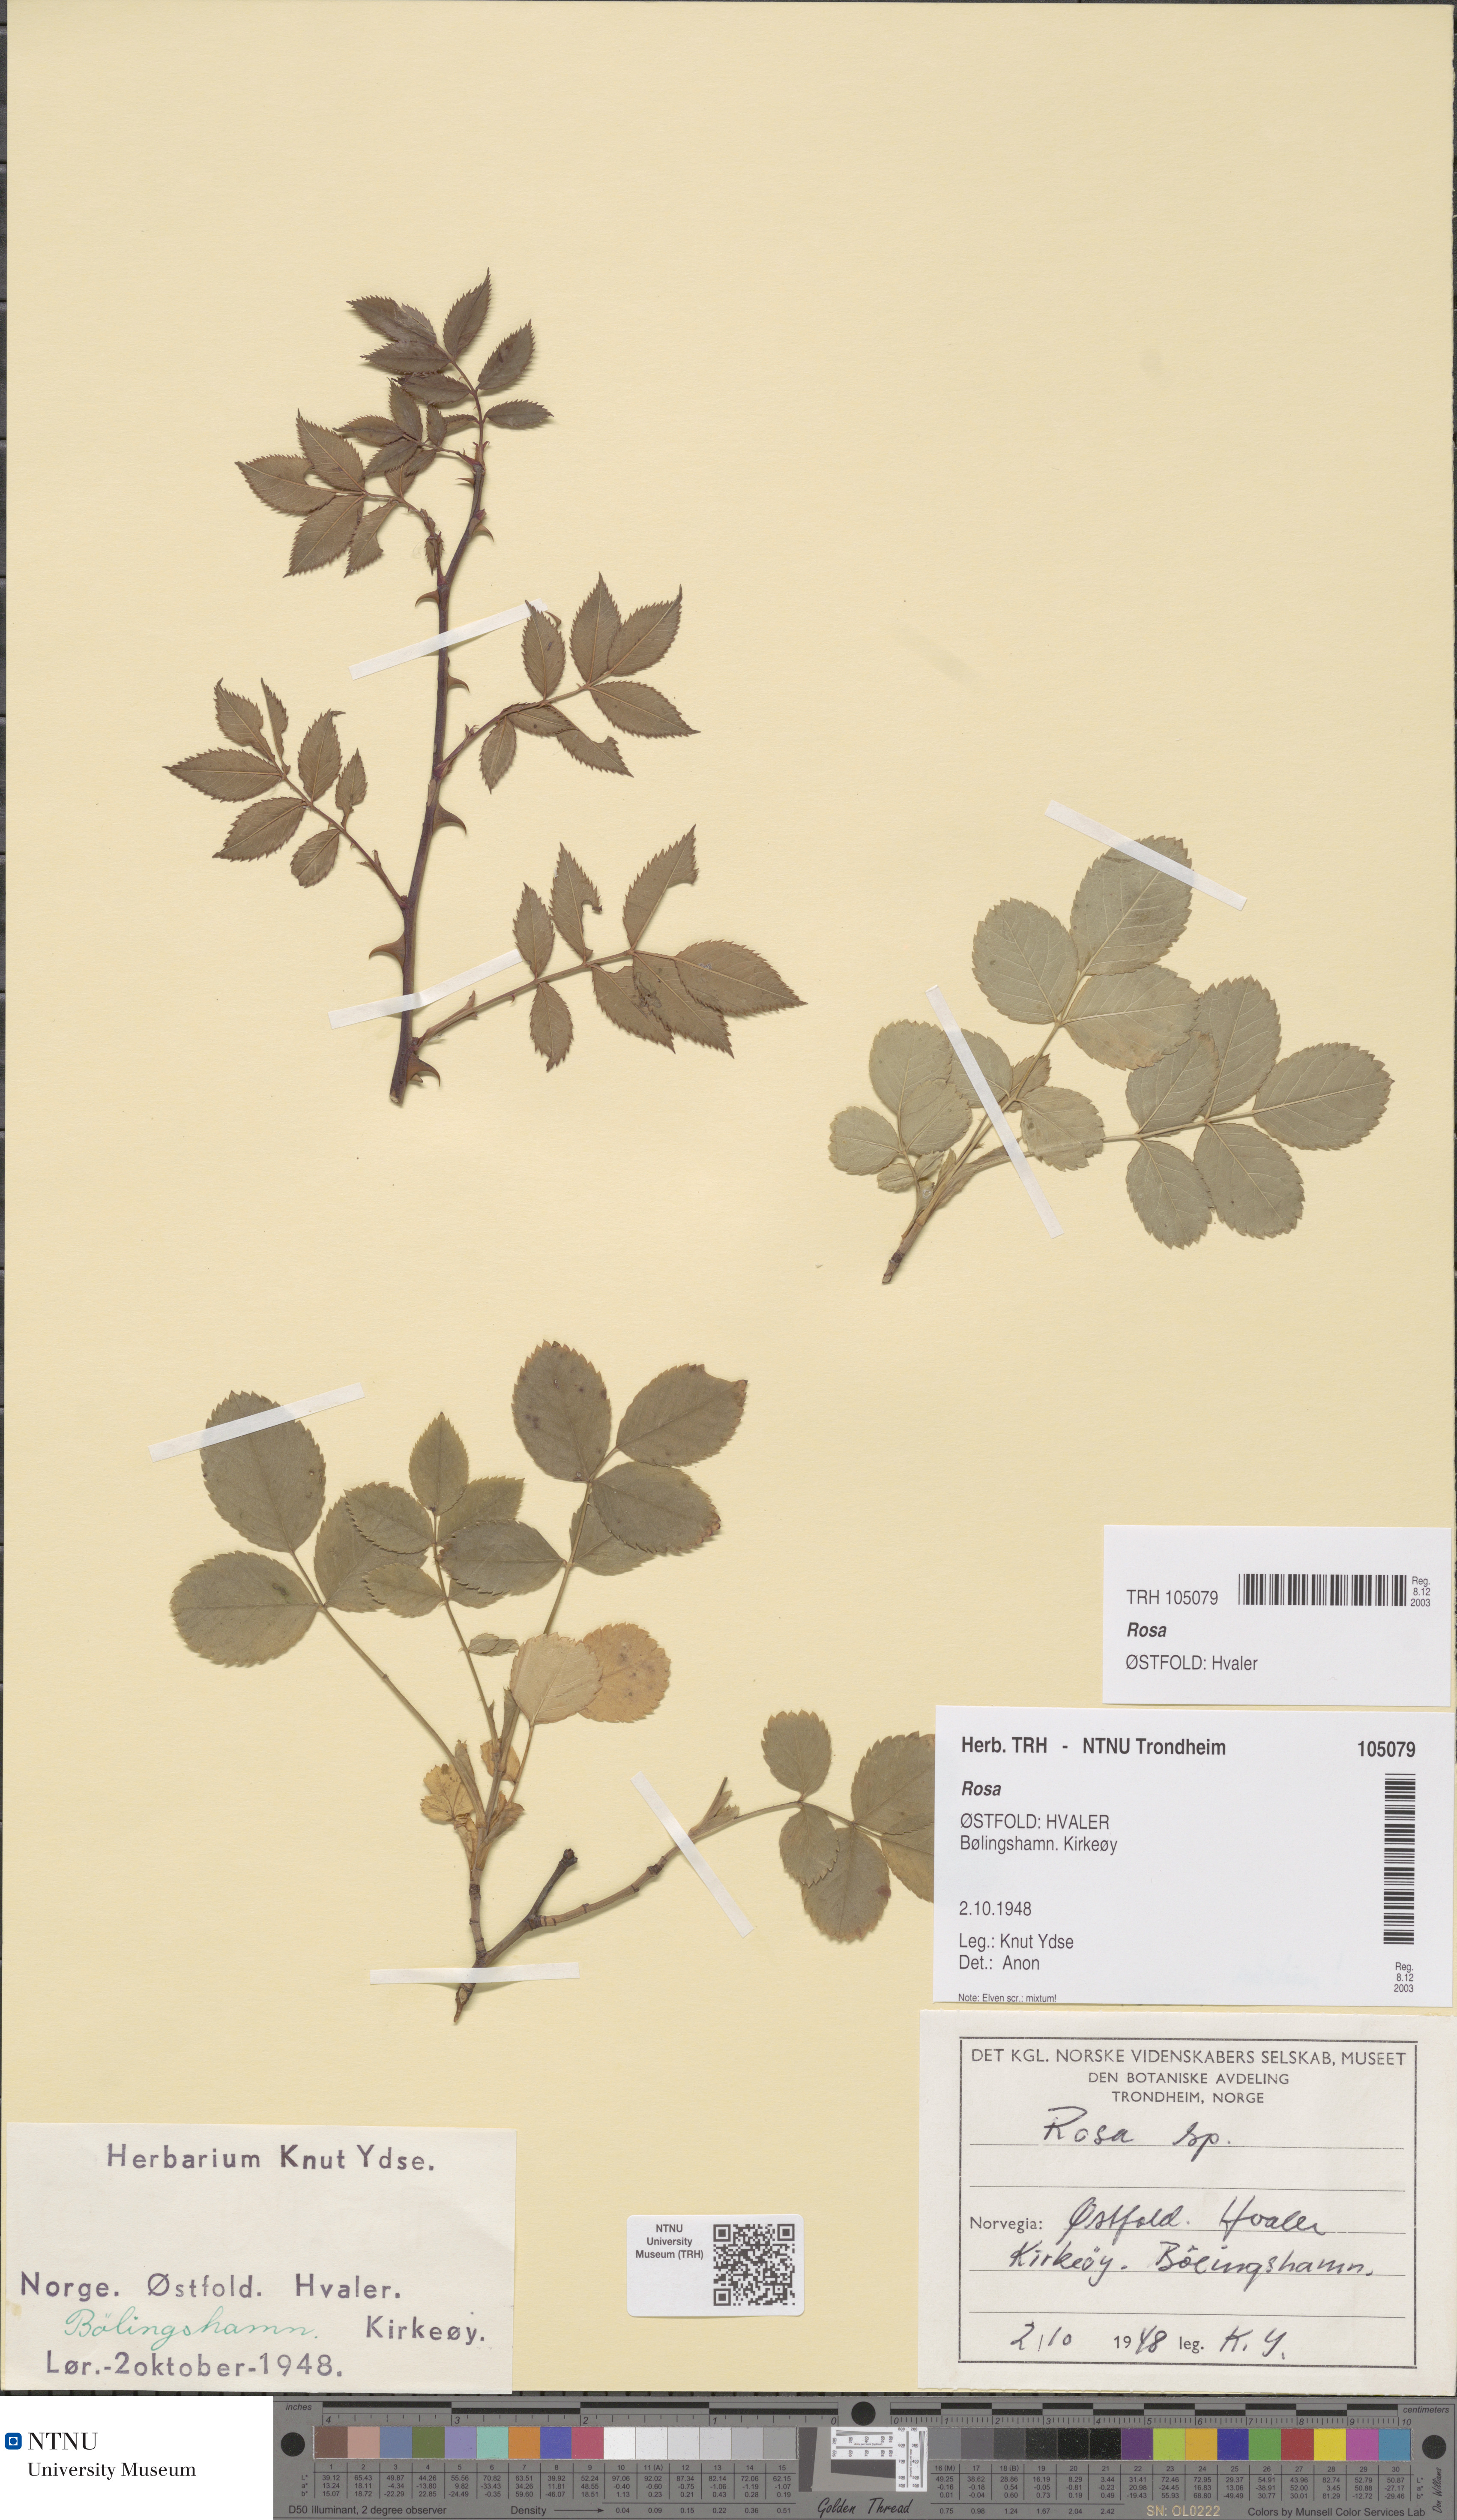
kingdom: Plantae
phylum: Tracheophyta
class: Magnoliopsida
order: Rosales
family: Rosaceae
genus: Rosa
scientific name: Rosa
